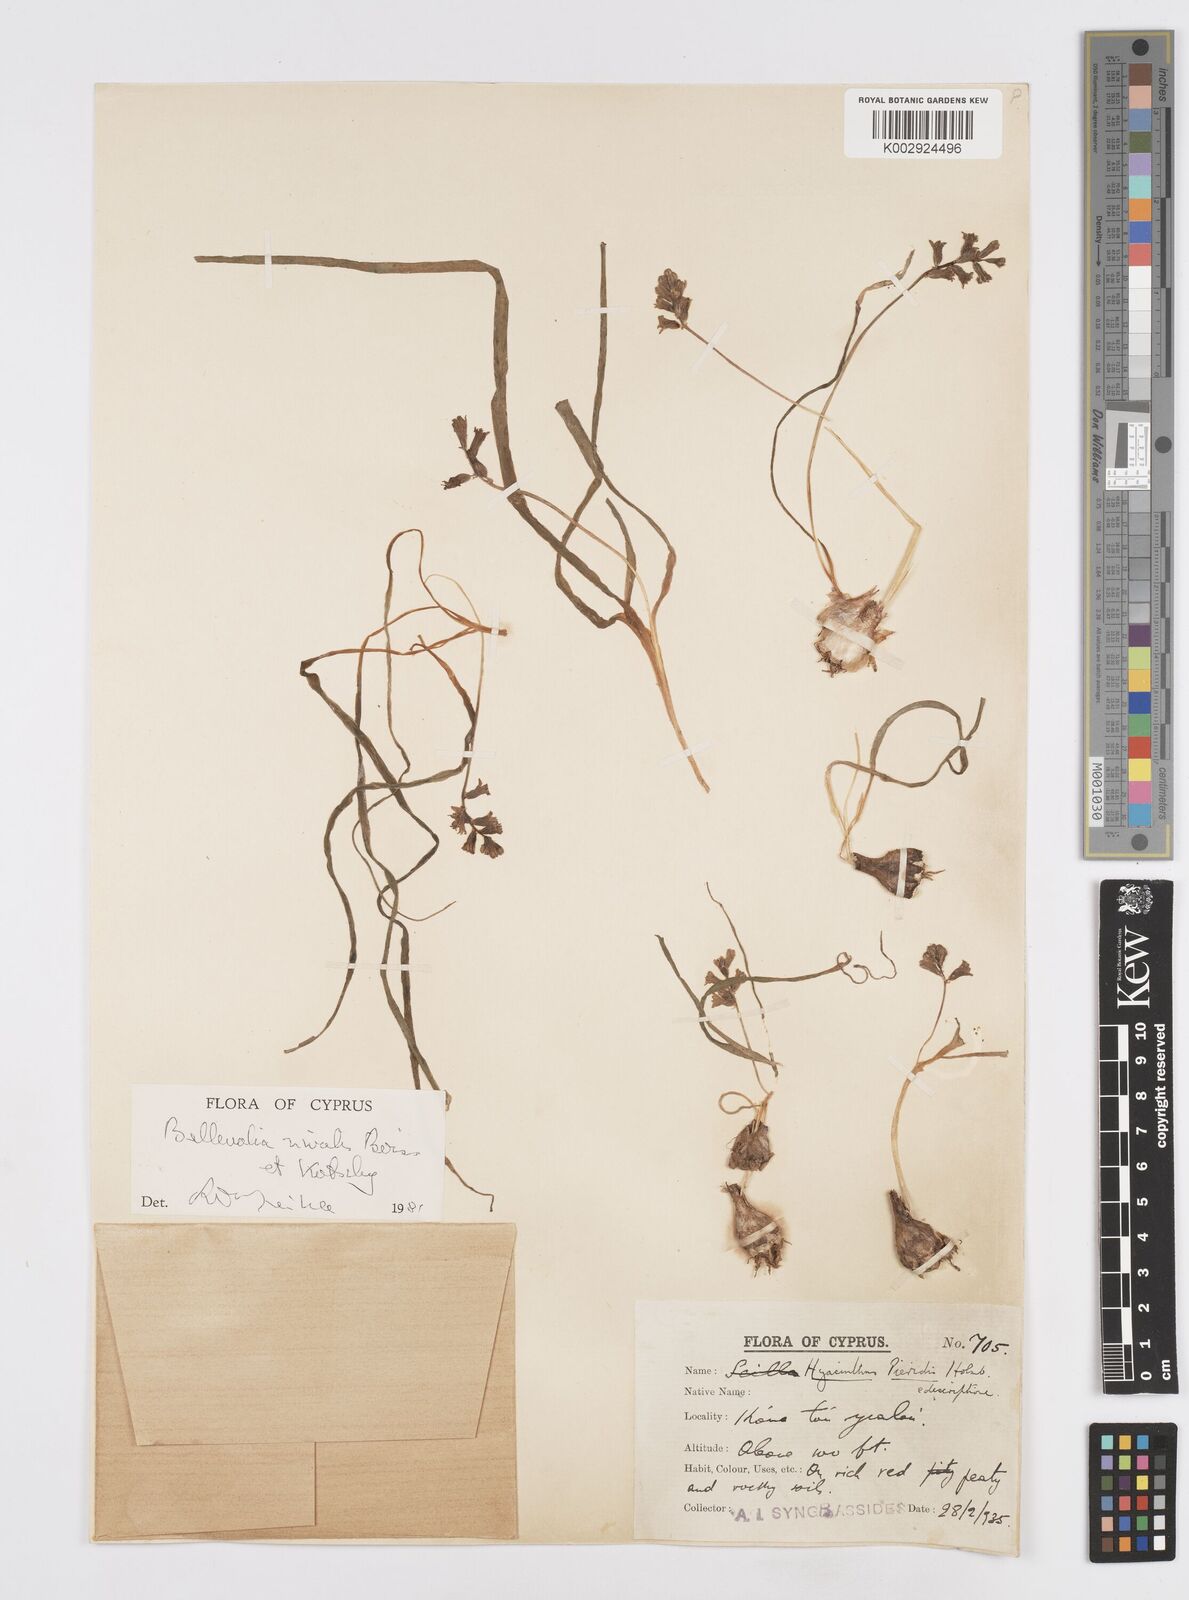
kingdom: Plantae
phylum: Tracheophyta
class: Liliopsida
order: Asparagales
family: Asparagaceae
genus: Bellevalia
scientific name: Bellevalia nivalis
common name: Snow bellevalia
